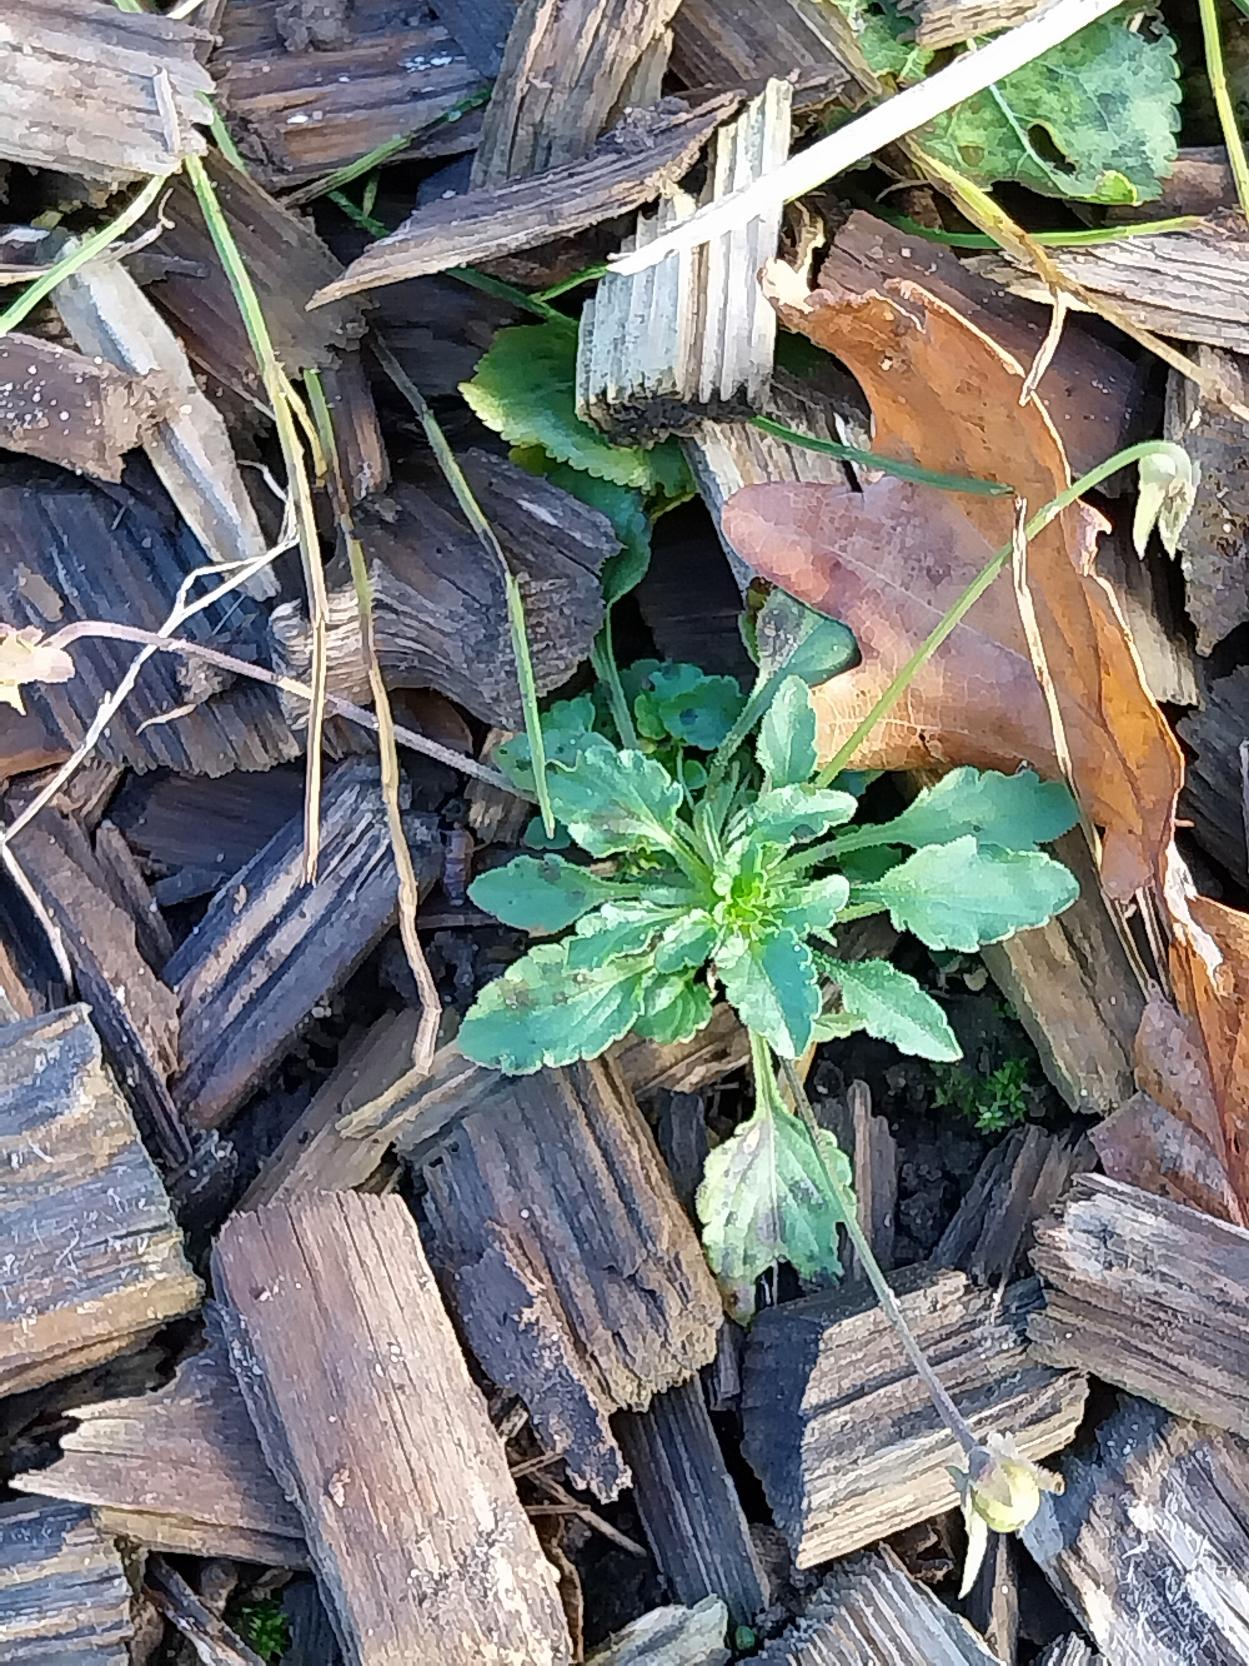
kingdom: Plantae
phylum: Tracheophyta
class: Magnoliopsida
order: Malpighiales
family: Violaceae
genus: Viola
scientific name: Viola arvensis
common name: Ager-stedmoderblomst
